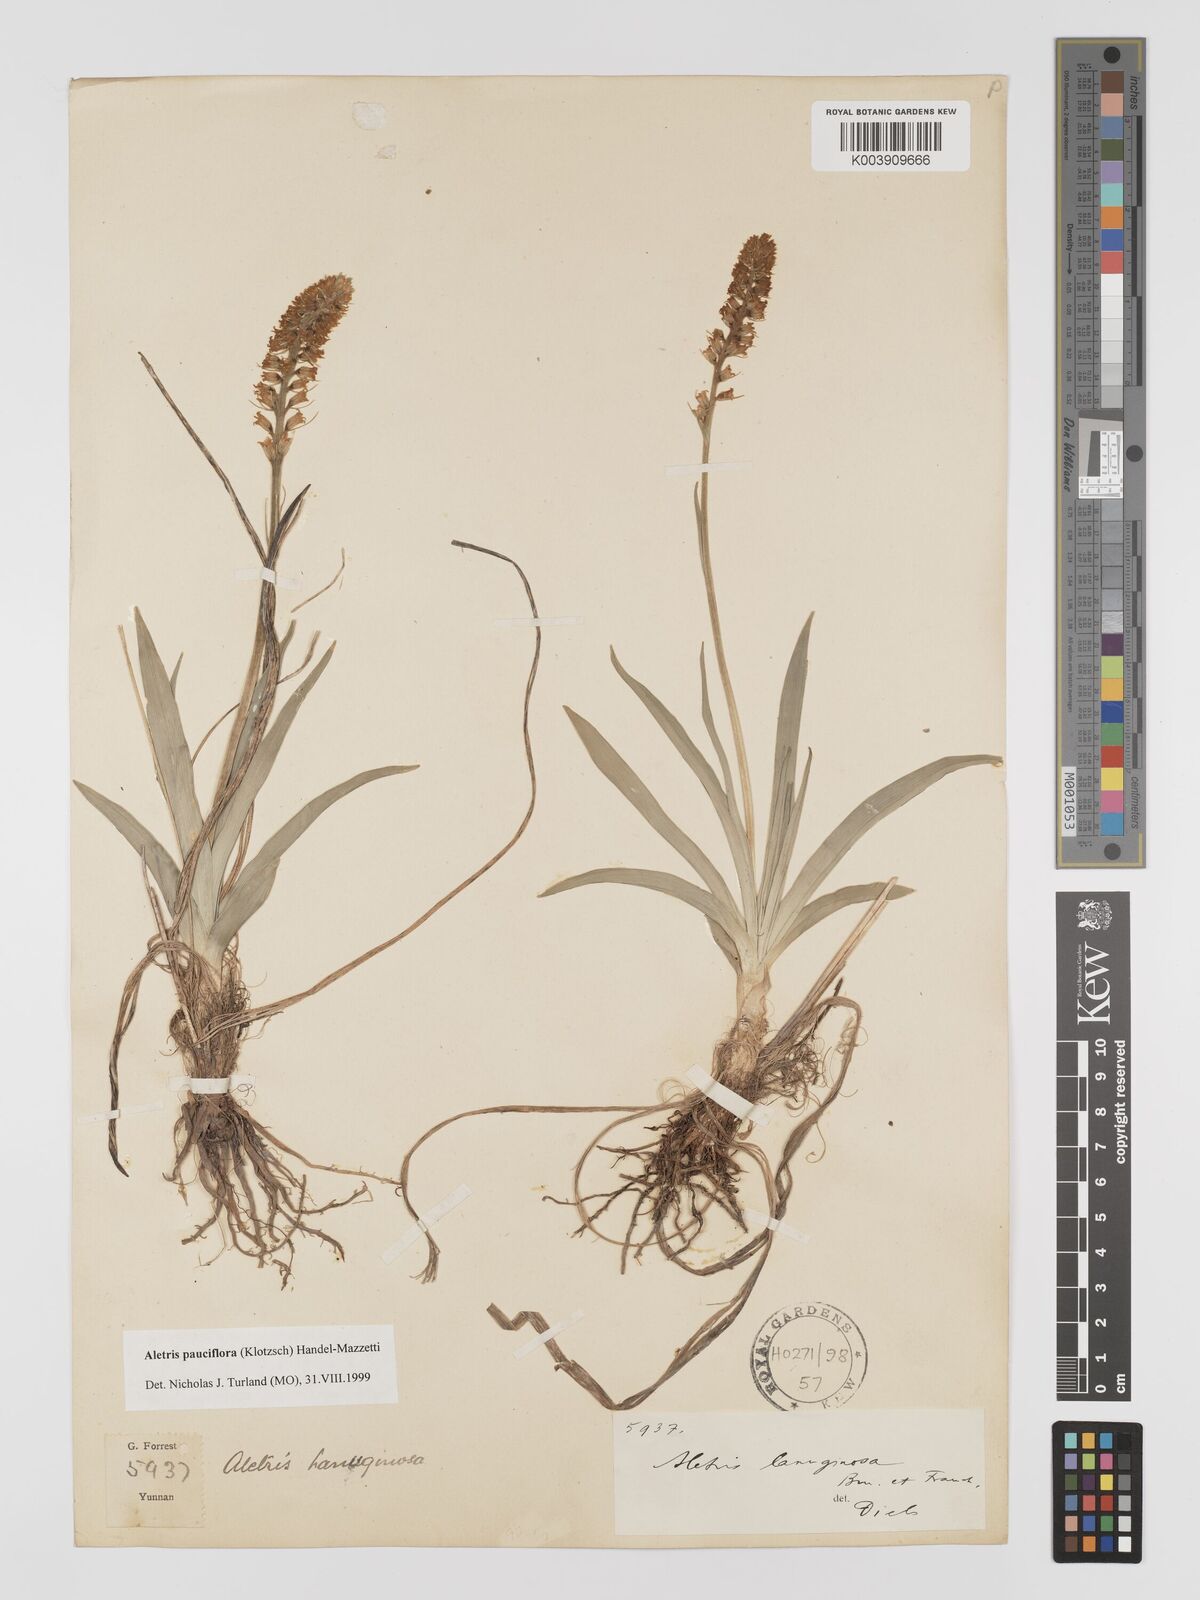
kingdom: Plantae
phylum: Tracheophyta
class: Liliopsida
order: Dioscoreales
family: Nartheciaceae
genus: Aletris
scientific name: Aletris pauciflora
